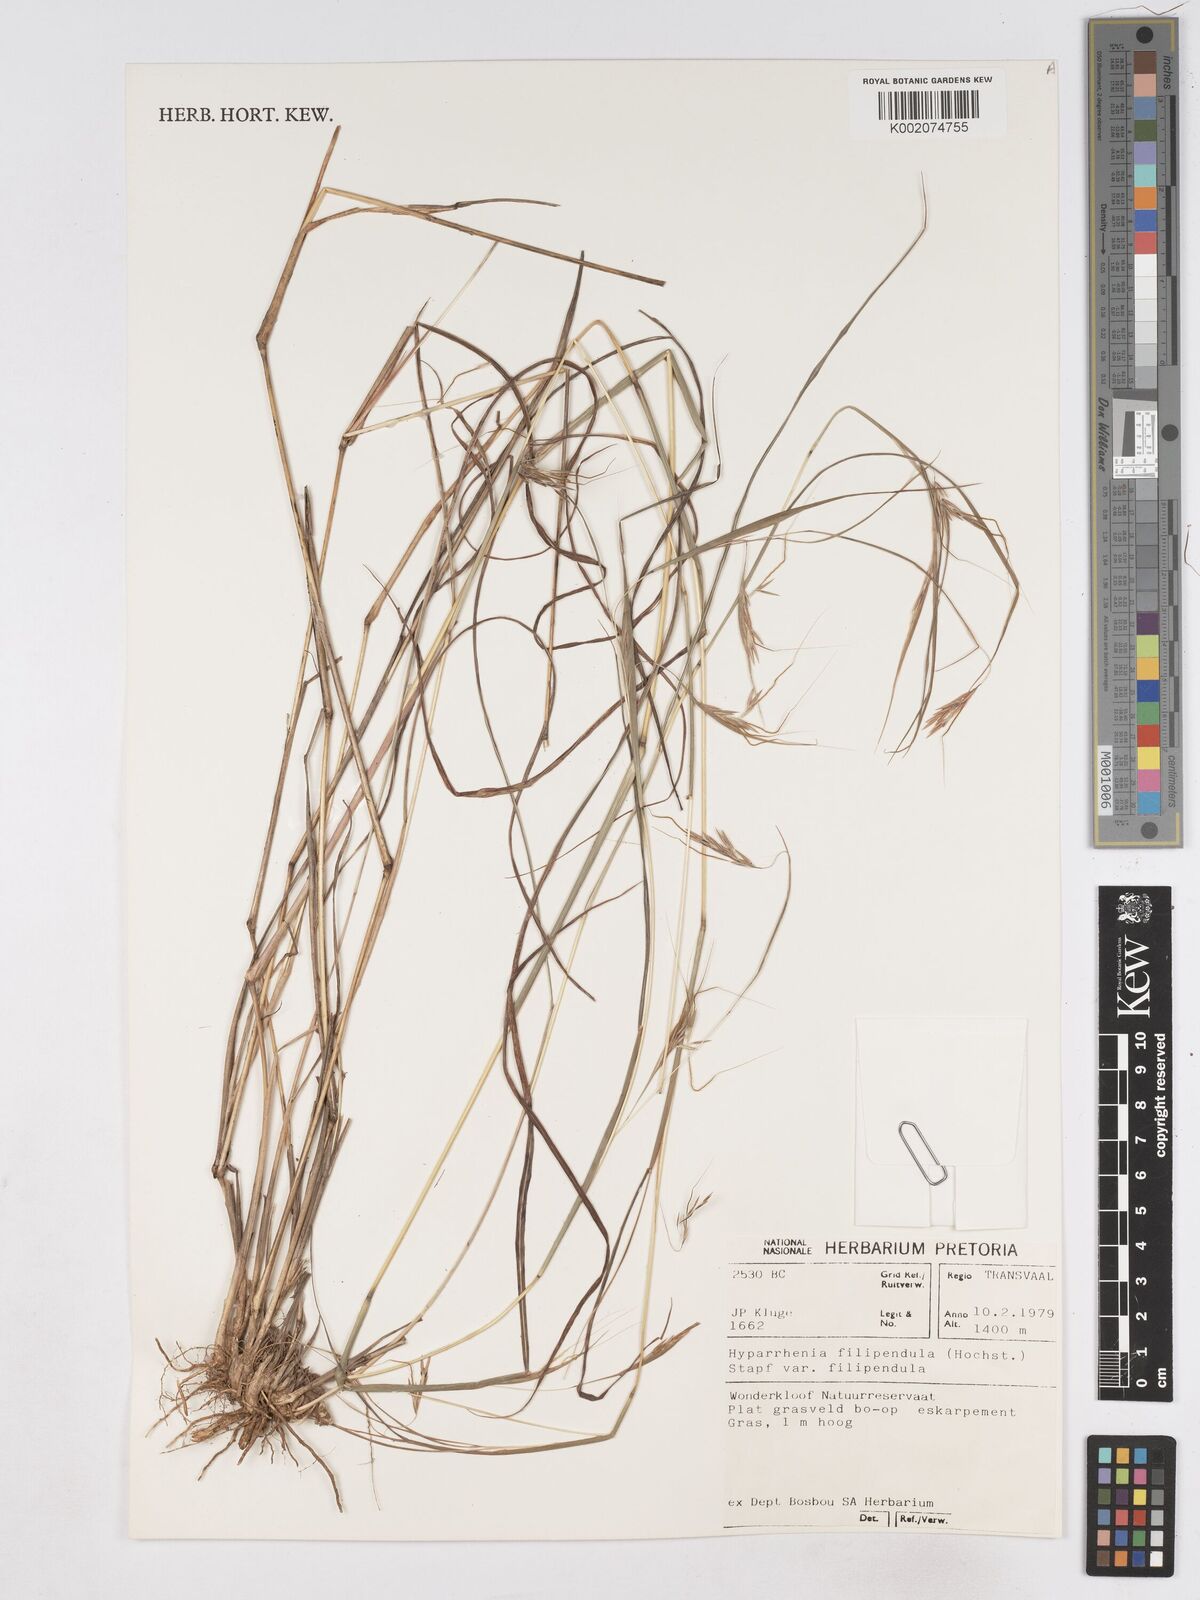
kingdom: Plantae
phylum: Tracheophyta
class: Liliopsida
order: Poales
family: Poaceae
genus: Hyparrhenia
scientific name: Hyparrhenia filipendula
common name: Tambookie grass
